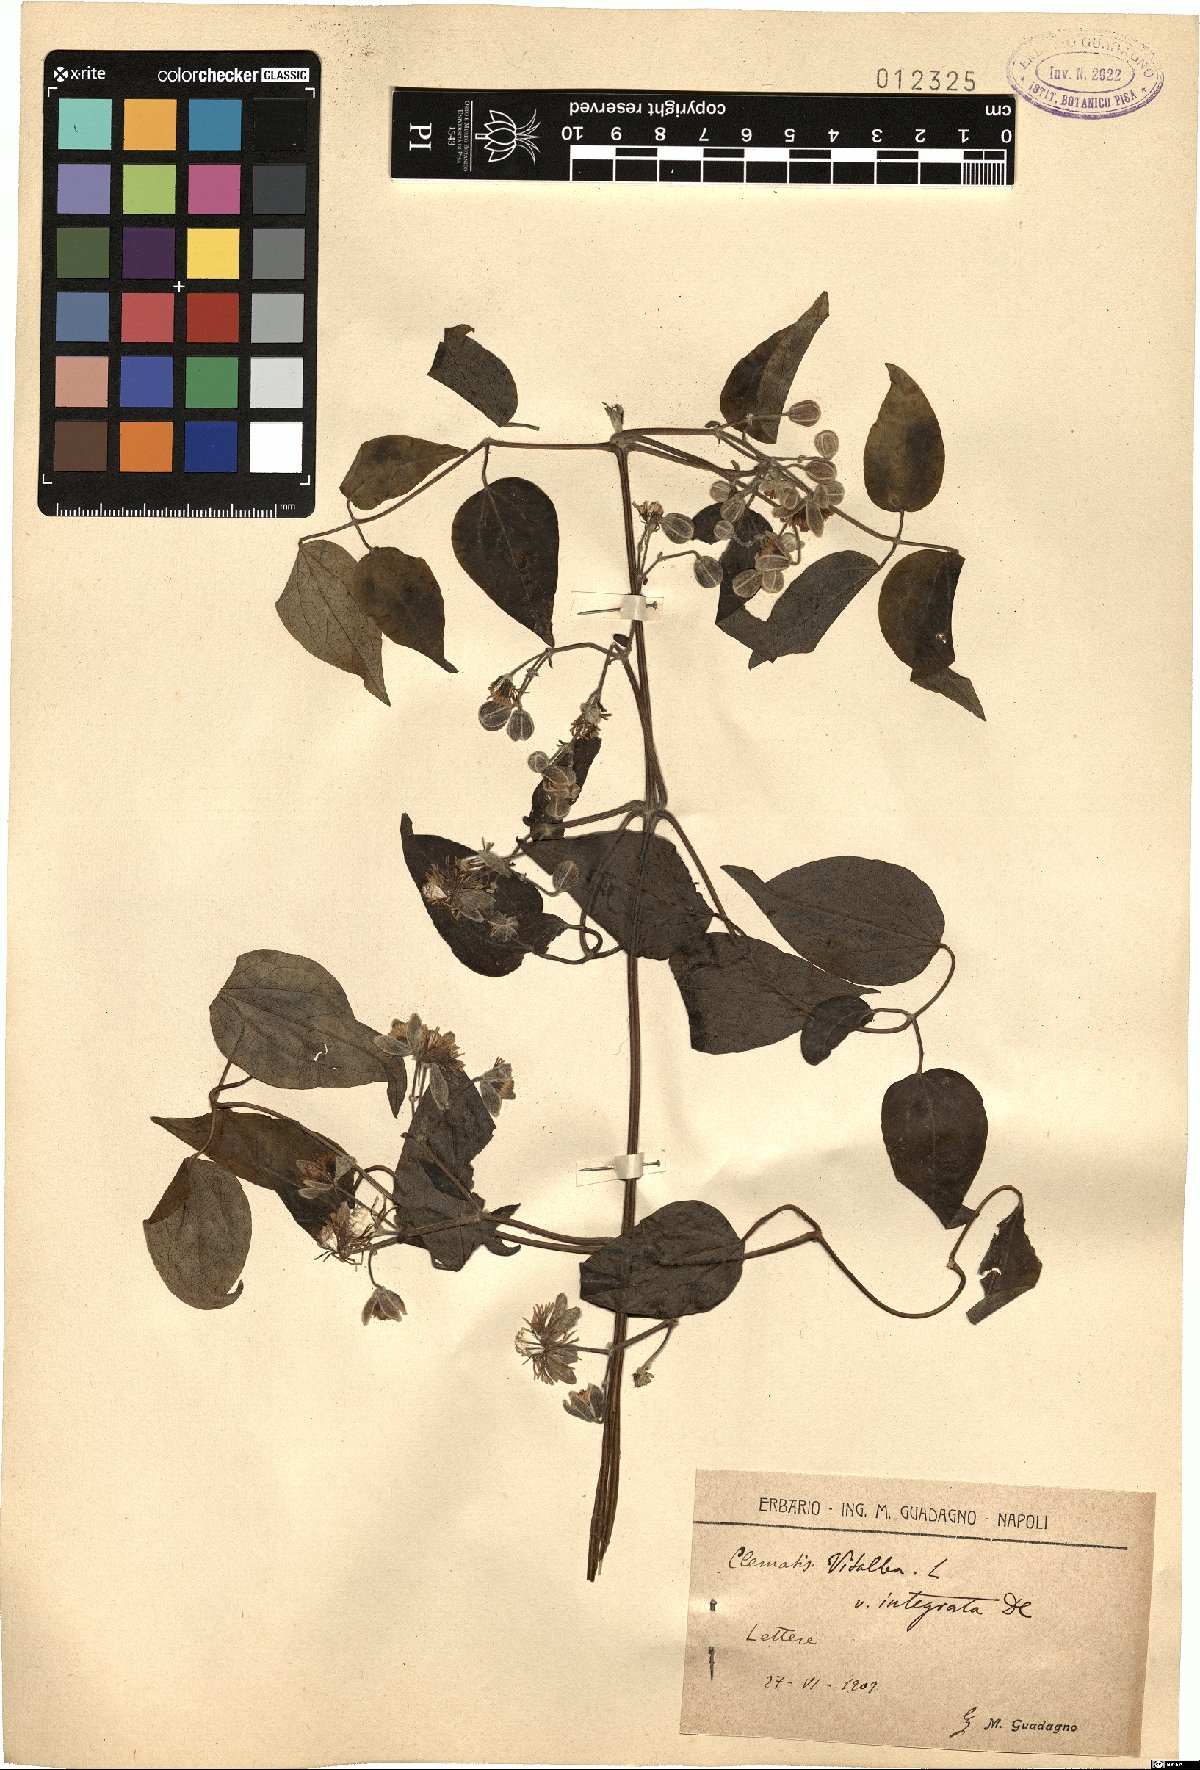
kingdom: Plantae
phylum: Tracheophyta
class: Magnoliopsida
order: Ranunculales
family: Ranunculaceae
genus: Clematis
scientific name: Clematis vitalba
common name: Evergreen clematis
